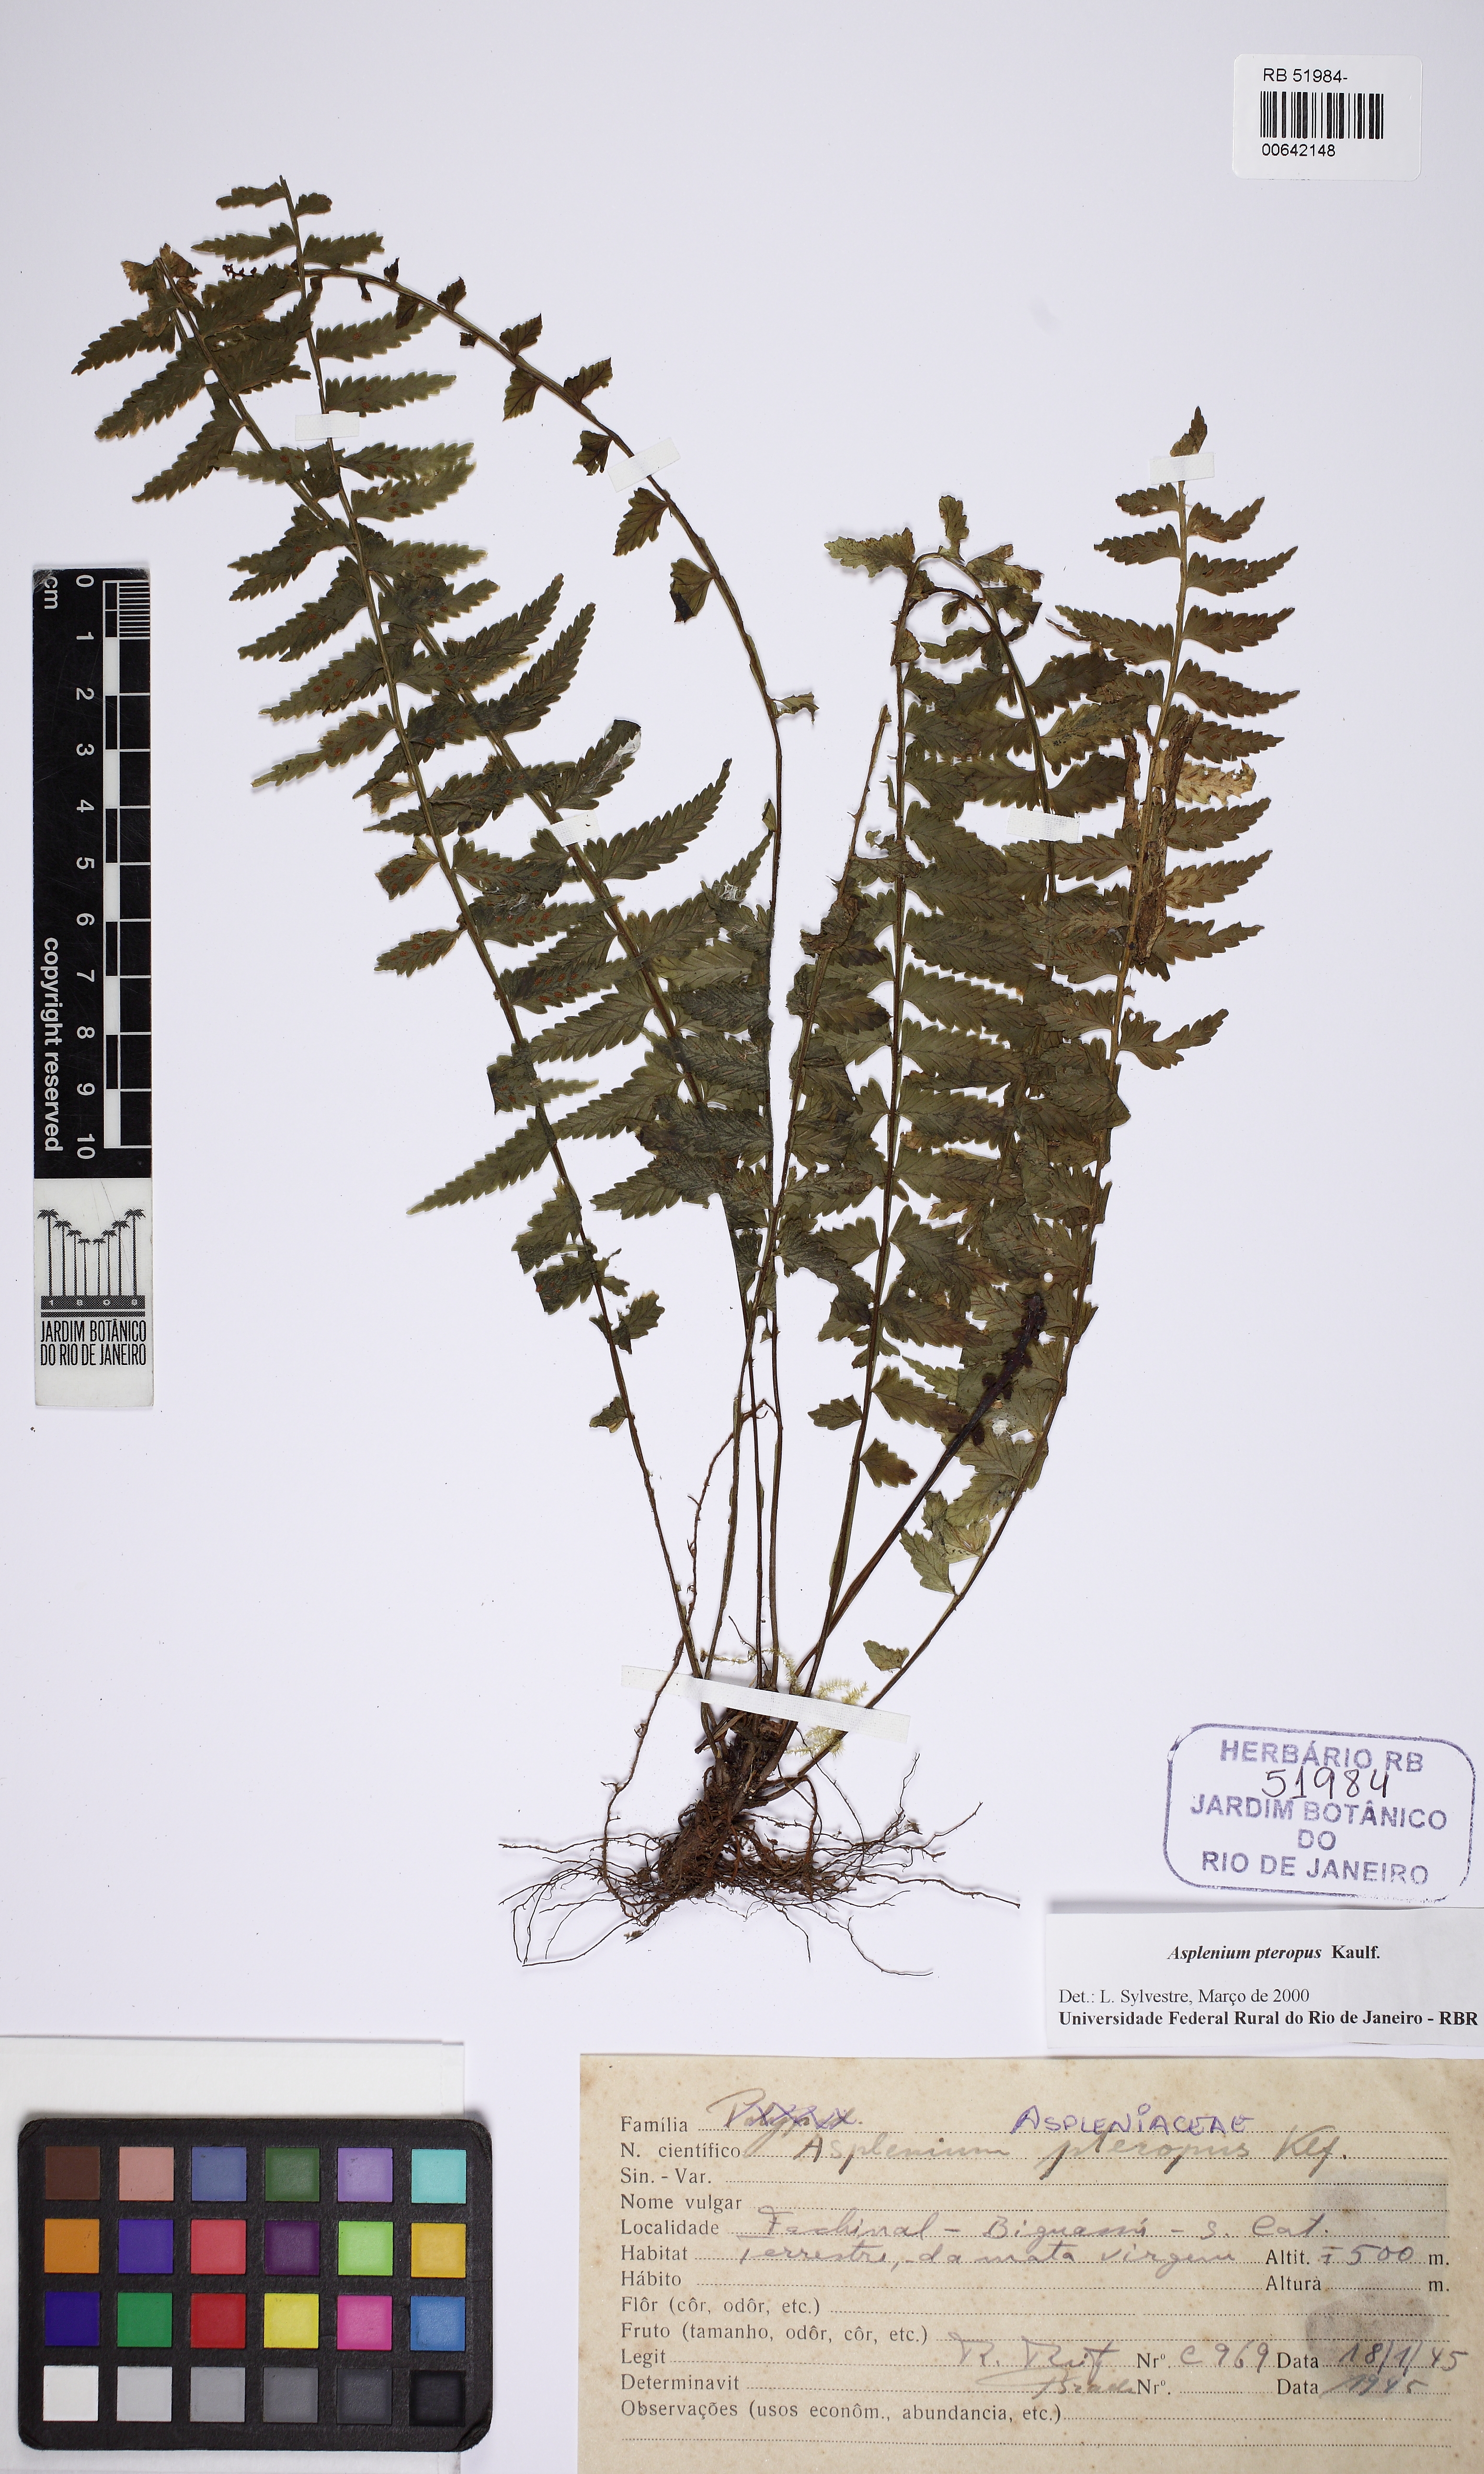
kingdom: Plantae
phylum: Tracheophyta
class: Polypodiopsida
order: Polypodiales
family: Aspleniaceae
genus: Asplenium
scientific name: Asplenium pteropus
